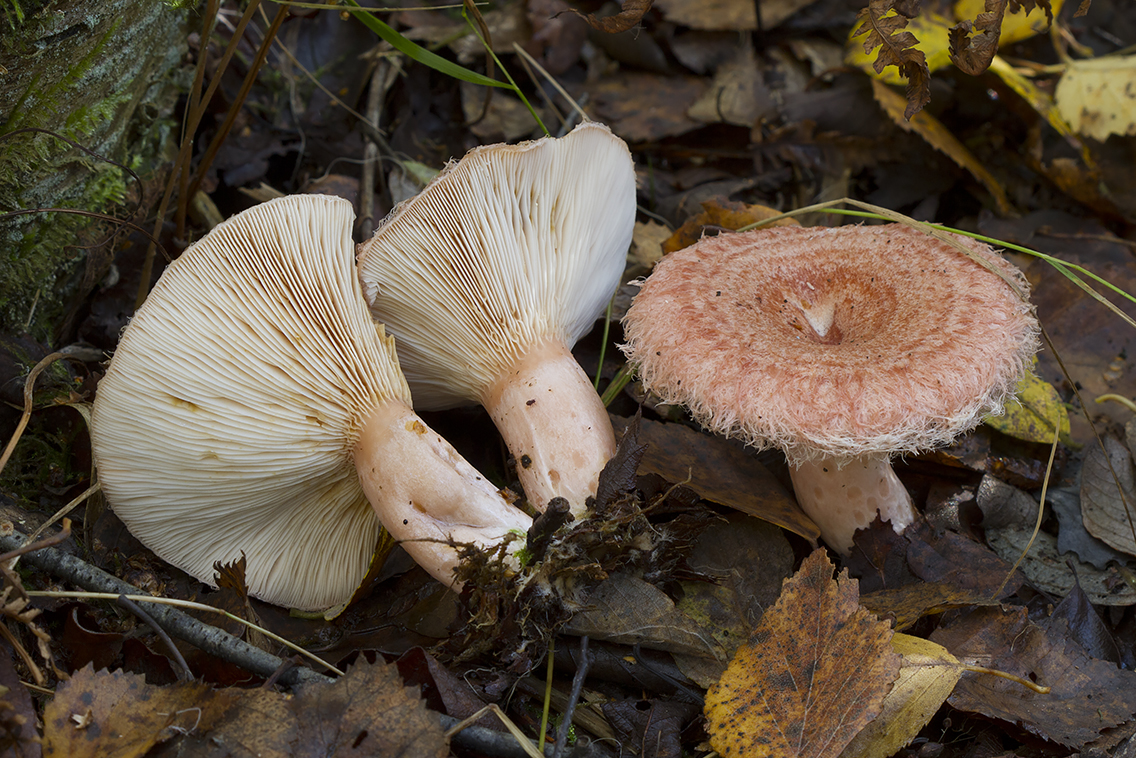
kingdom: Fungi
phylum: Basidiomycota
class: Agaricomycetes
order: Russulales
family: Russulaceae
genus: Lactarius
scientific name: Lactarius torminosus
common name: skægget mælkehat
